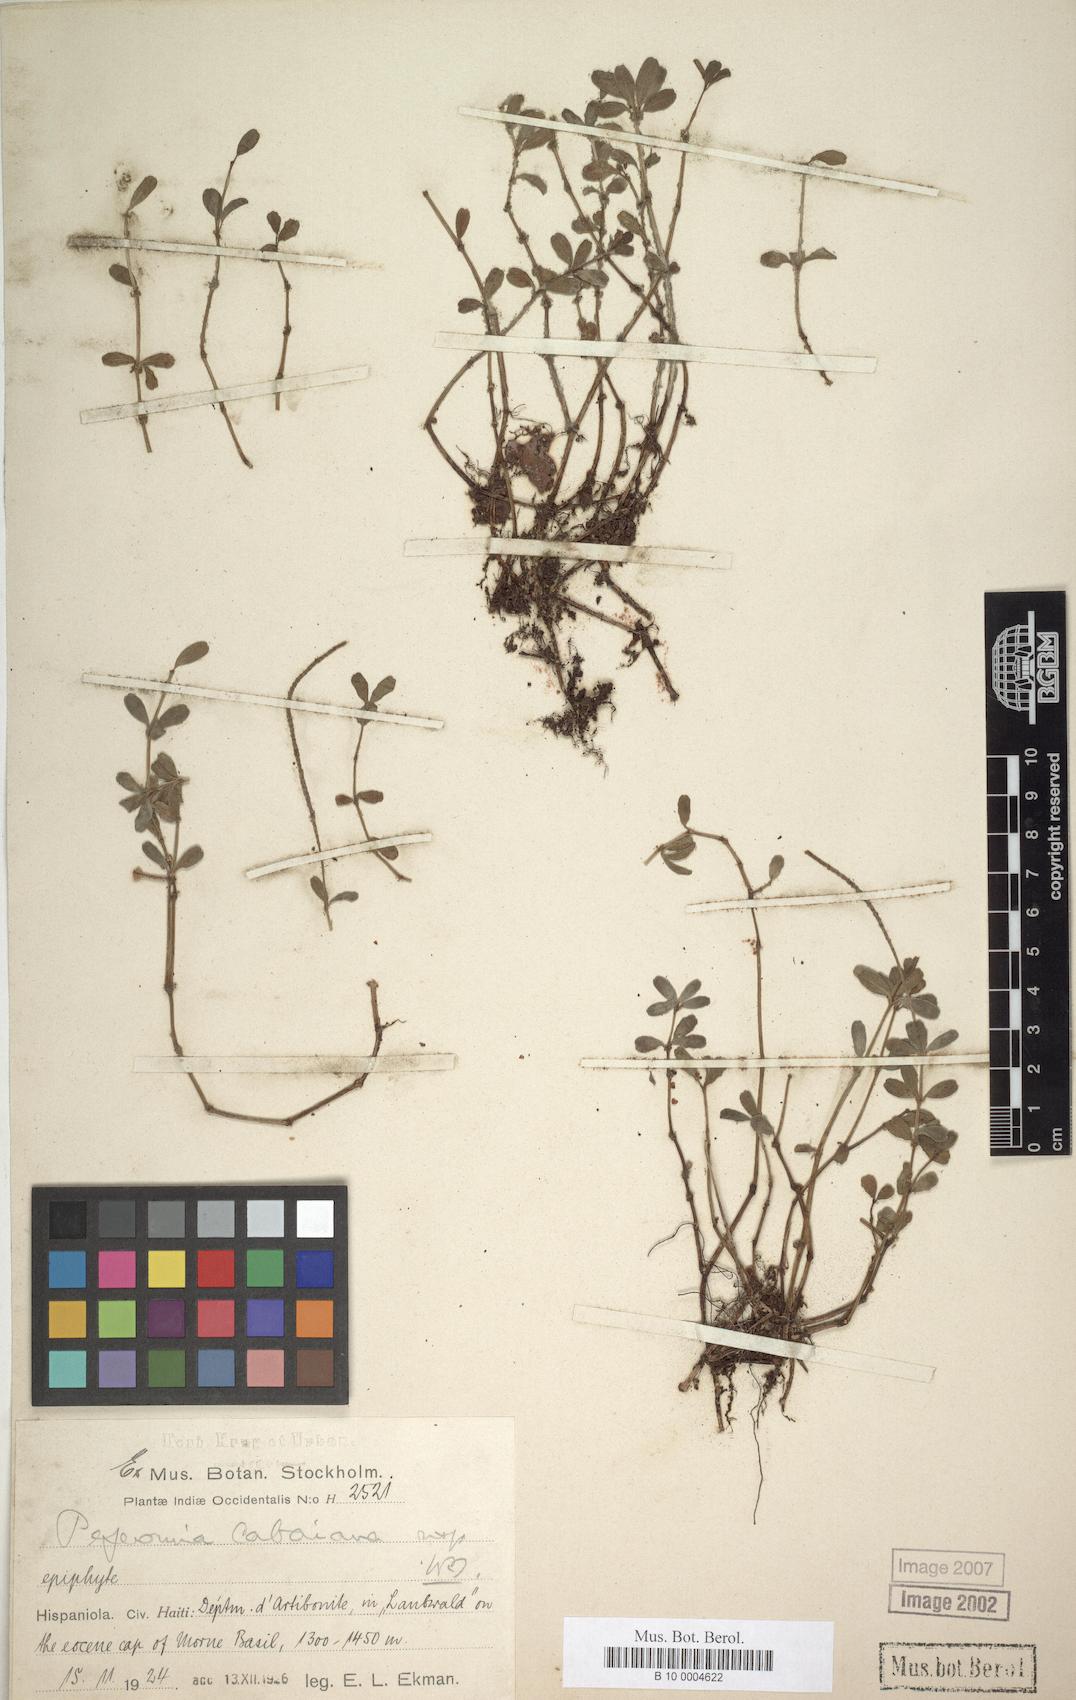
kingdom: Plantae
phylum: Tracheophyta
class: Magnoliopsida
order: Piperales
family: Piperaceae
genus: Peperomia
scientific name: Peperomia quadrifolia
